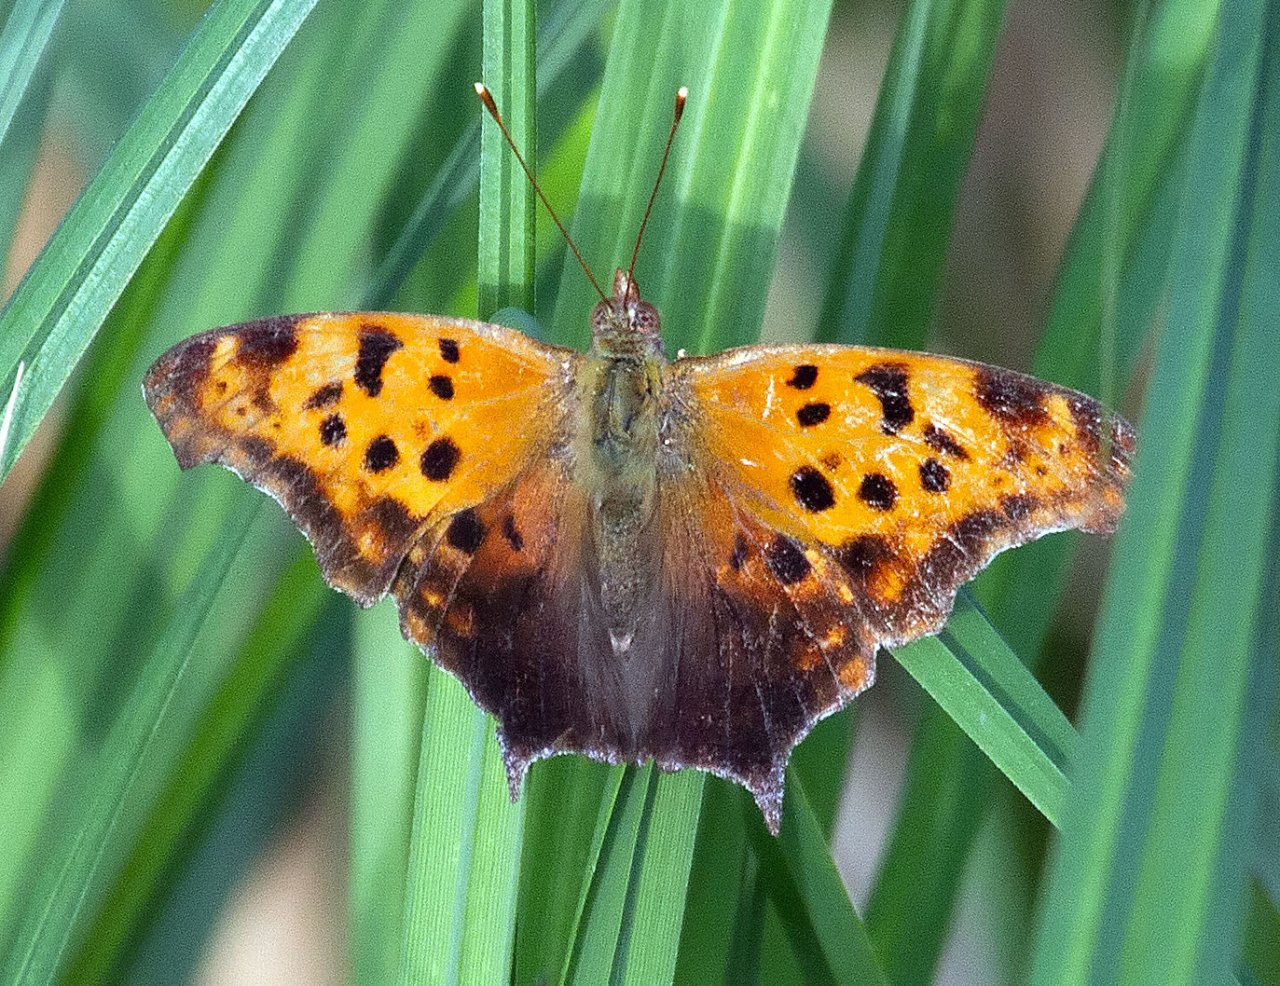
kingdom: Animalia
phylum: Arthropoda
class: Insecta
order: Lepidoptera
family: Nymphalidae
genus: Polygonia
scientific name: Polygonia comma
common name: Eastern Comma
